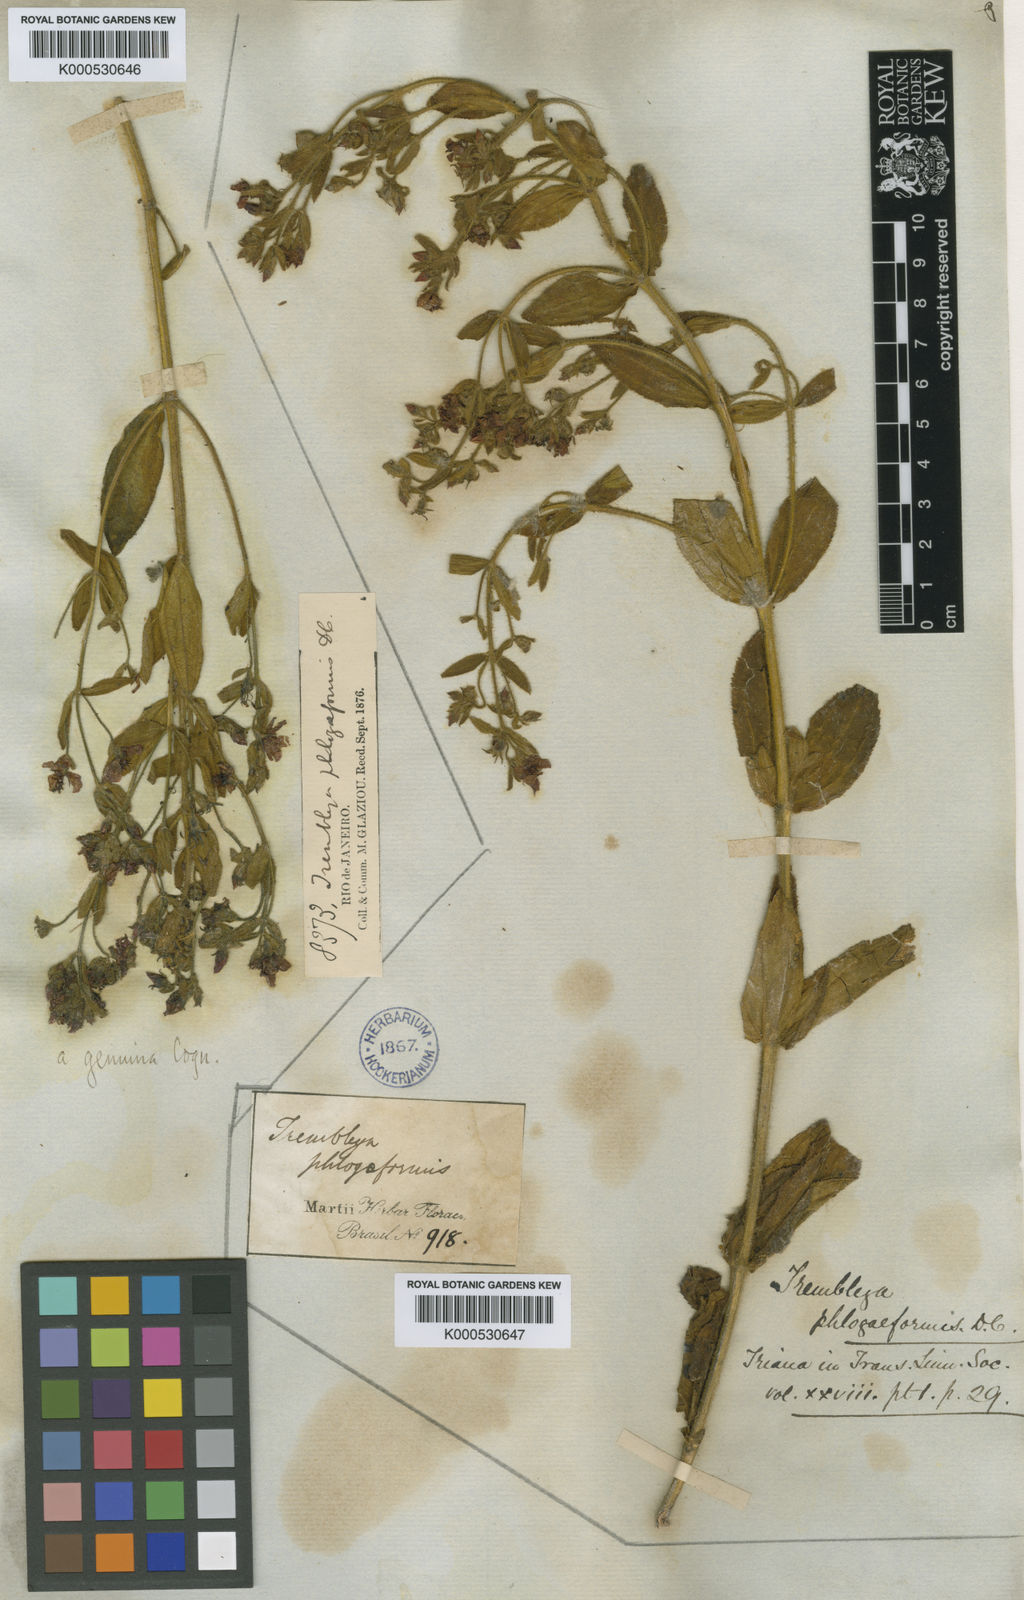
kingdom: Plantae
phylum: Tracheophyta
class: Magnoliopsida
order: Myrtales
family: Melastomataceae
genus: Microlicia
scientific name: Microlicia phlogiformis
